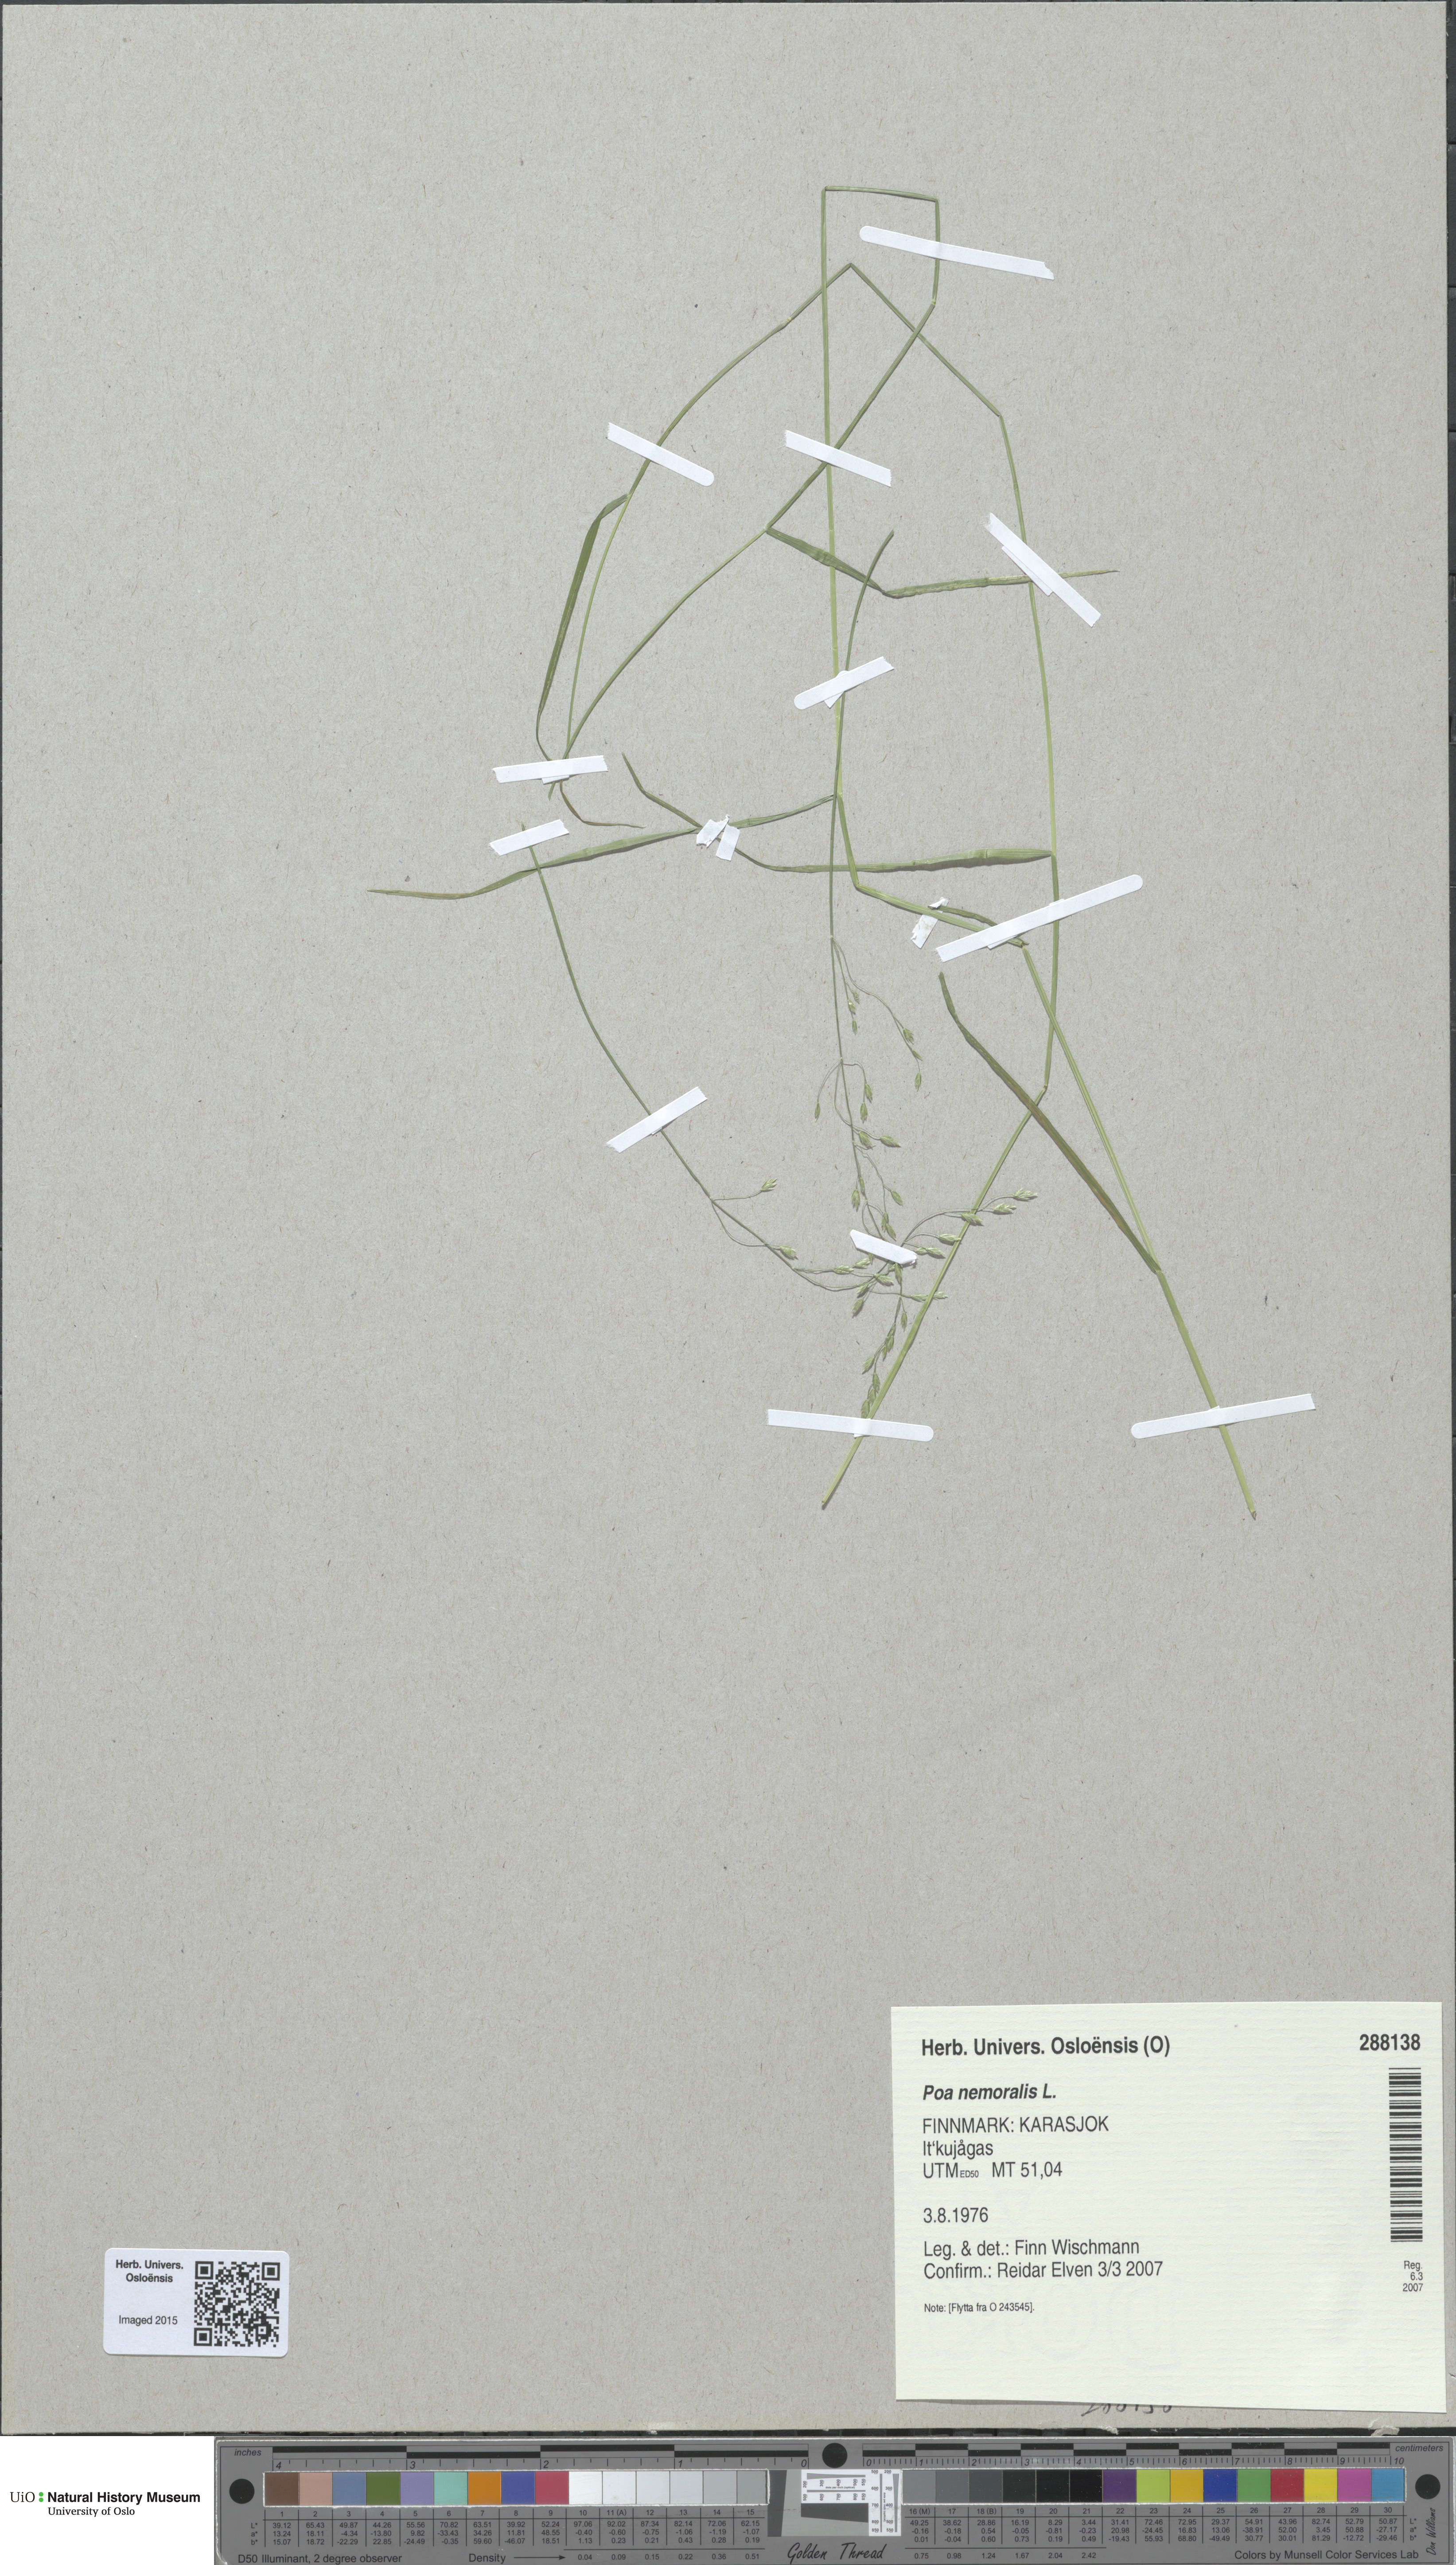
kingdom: Plantae
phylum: Tracheophyta
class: Liliopsida
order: Poales
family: Poaceae
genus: Poa
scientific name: Poa nemoralis
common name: Wood bluegrass
